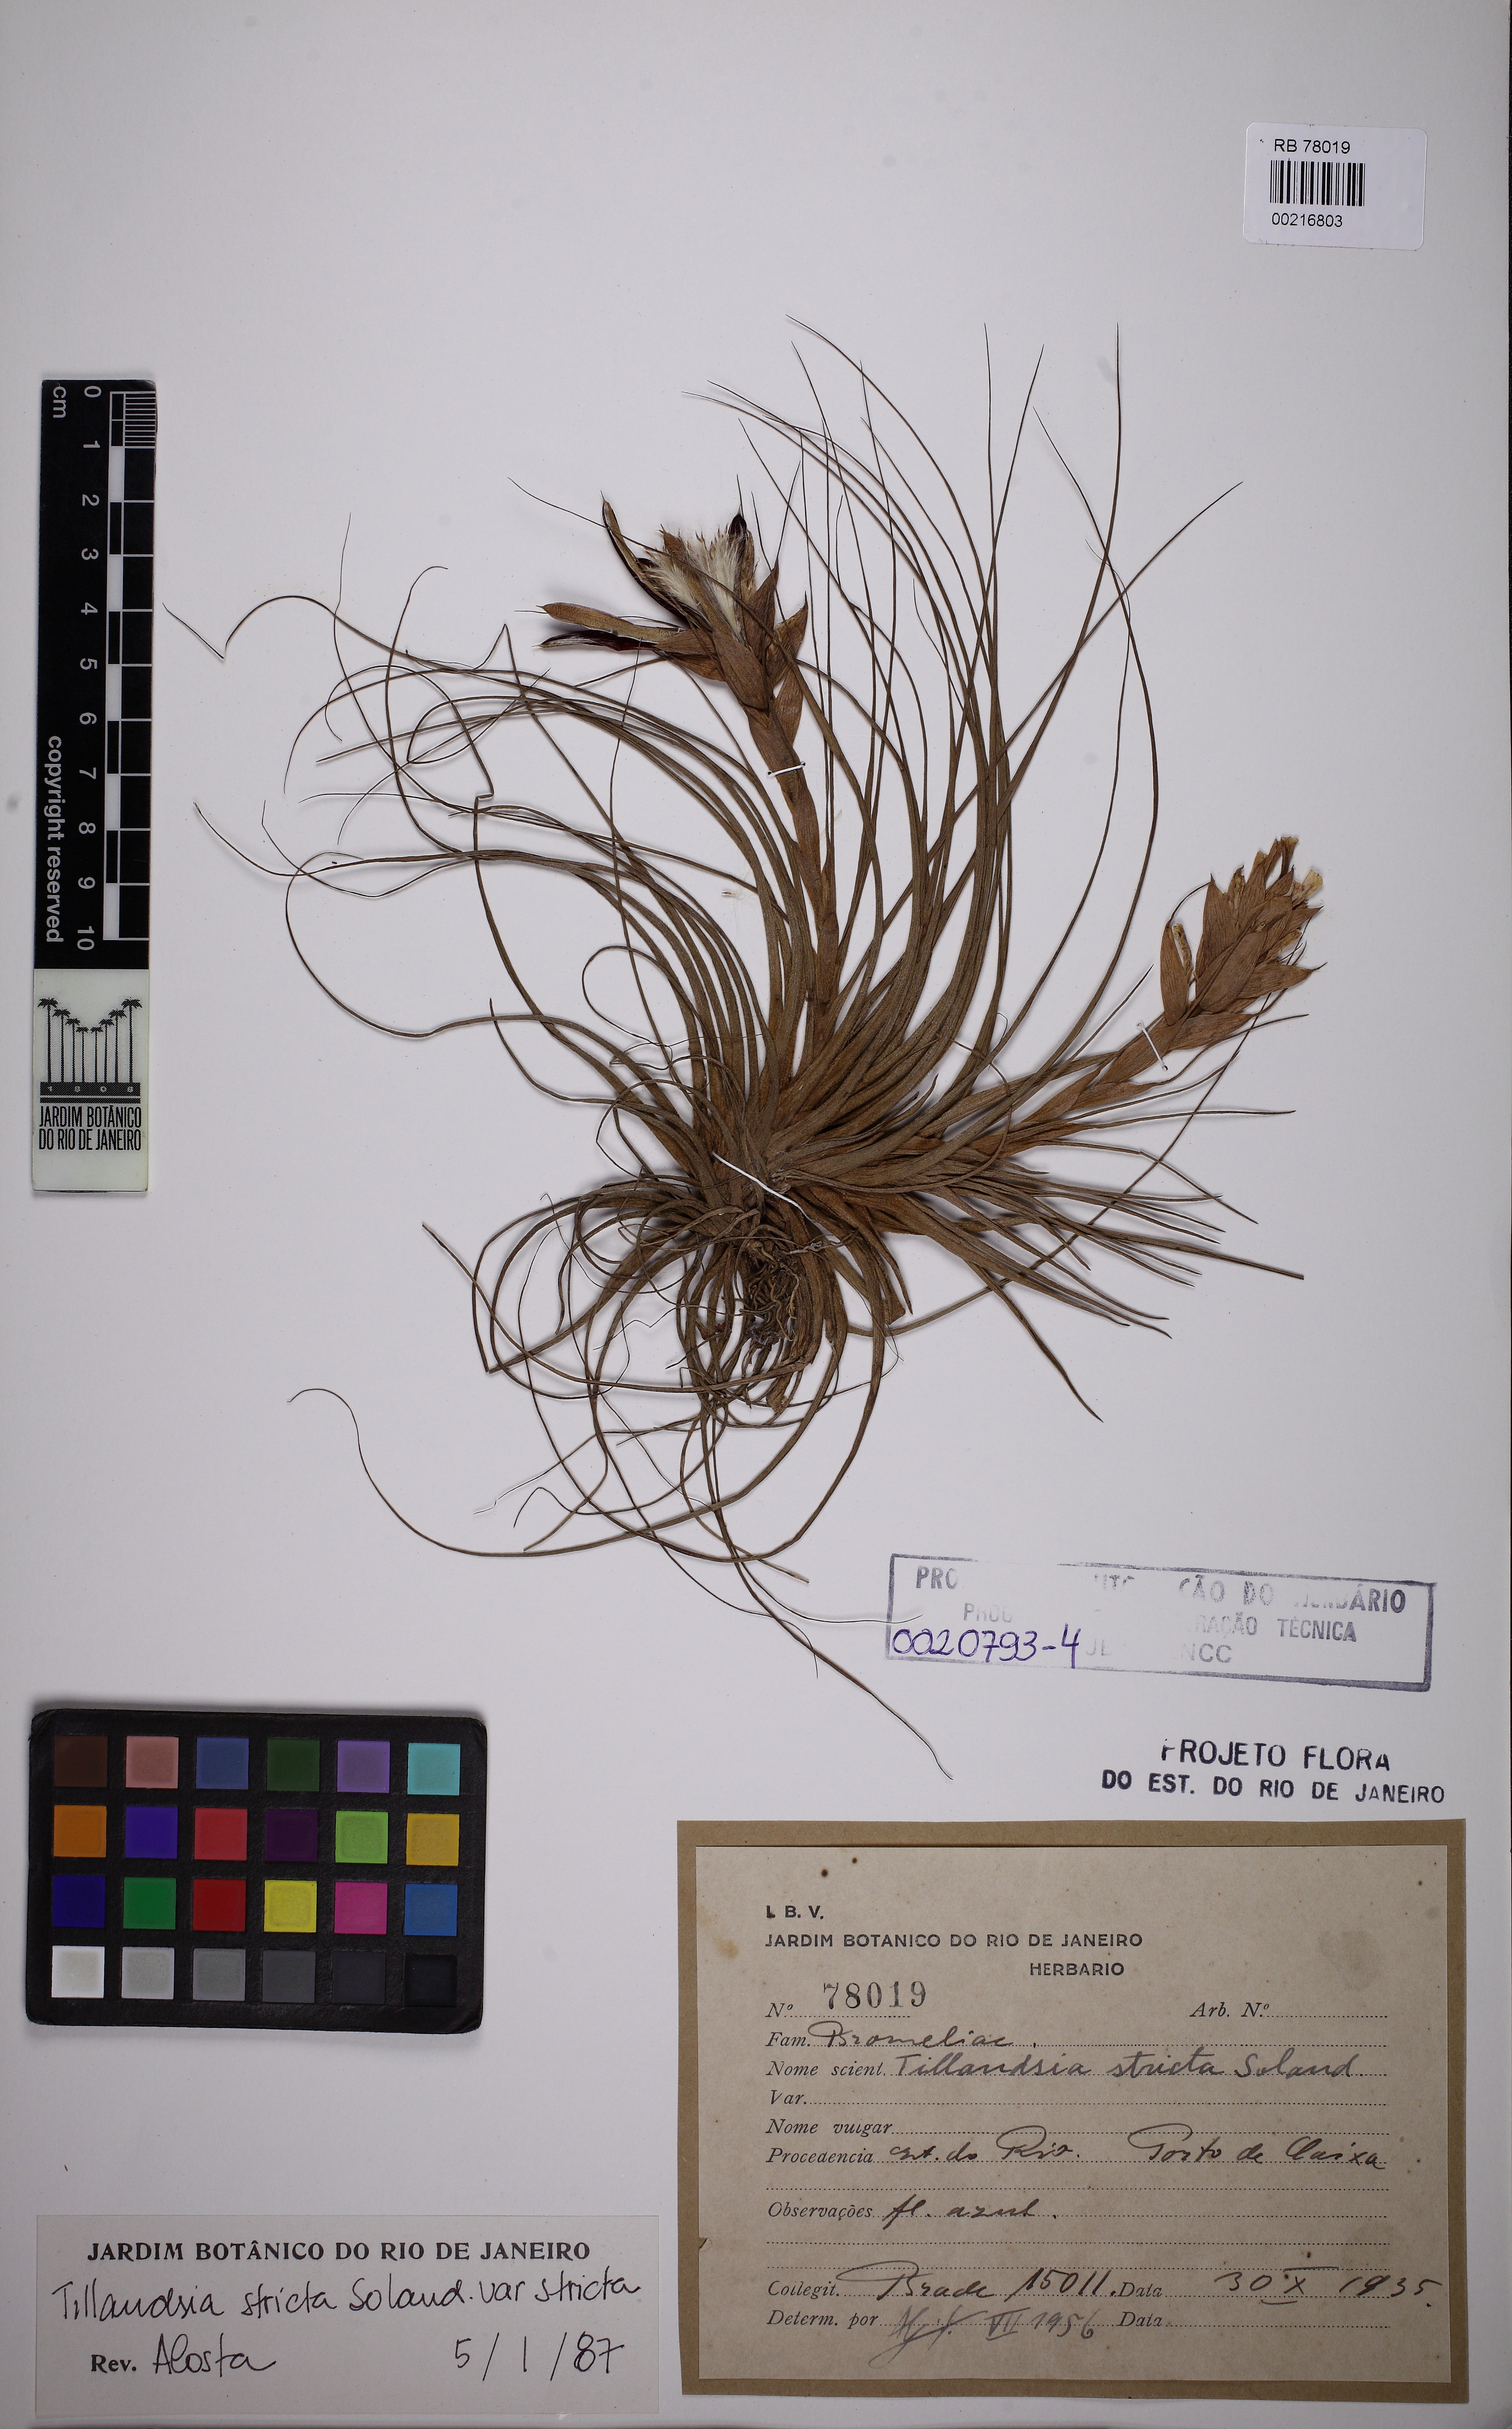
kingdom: Plantae
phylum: Tracheophyta
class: Liliopsida
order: Poales
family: Bromeliaceae
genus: Tillandsia
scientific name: Tillandsia stricta
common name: Airplant
